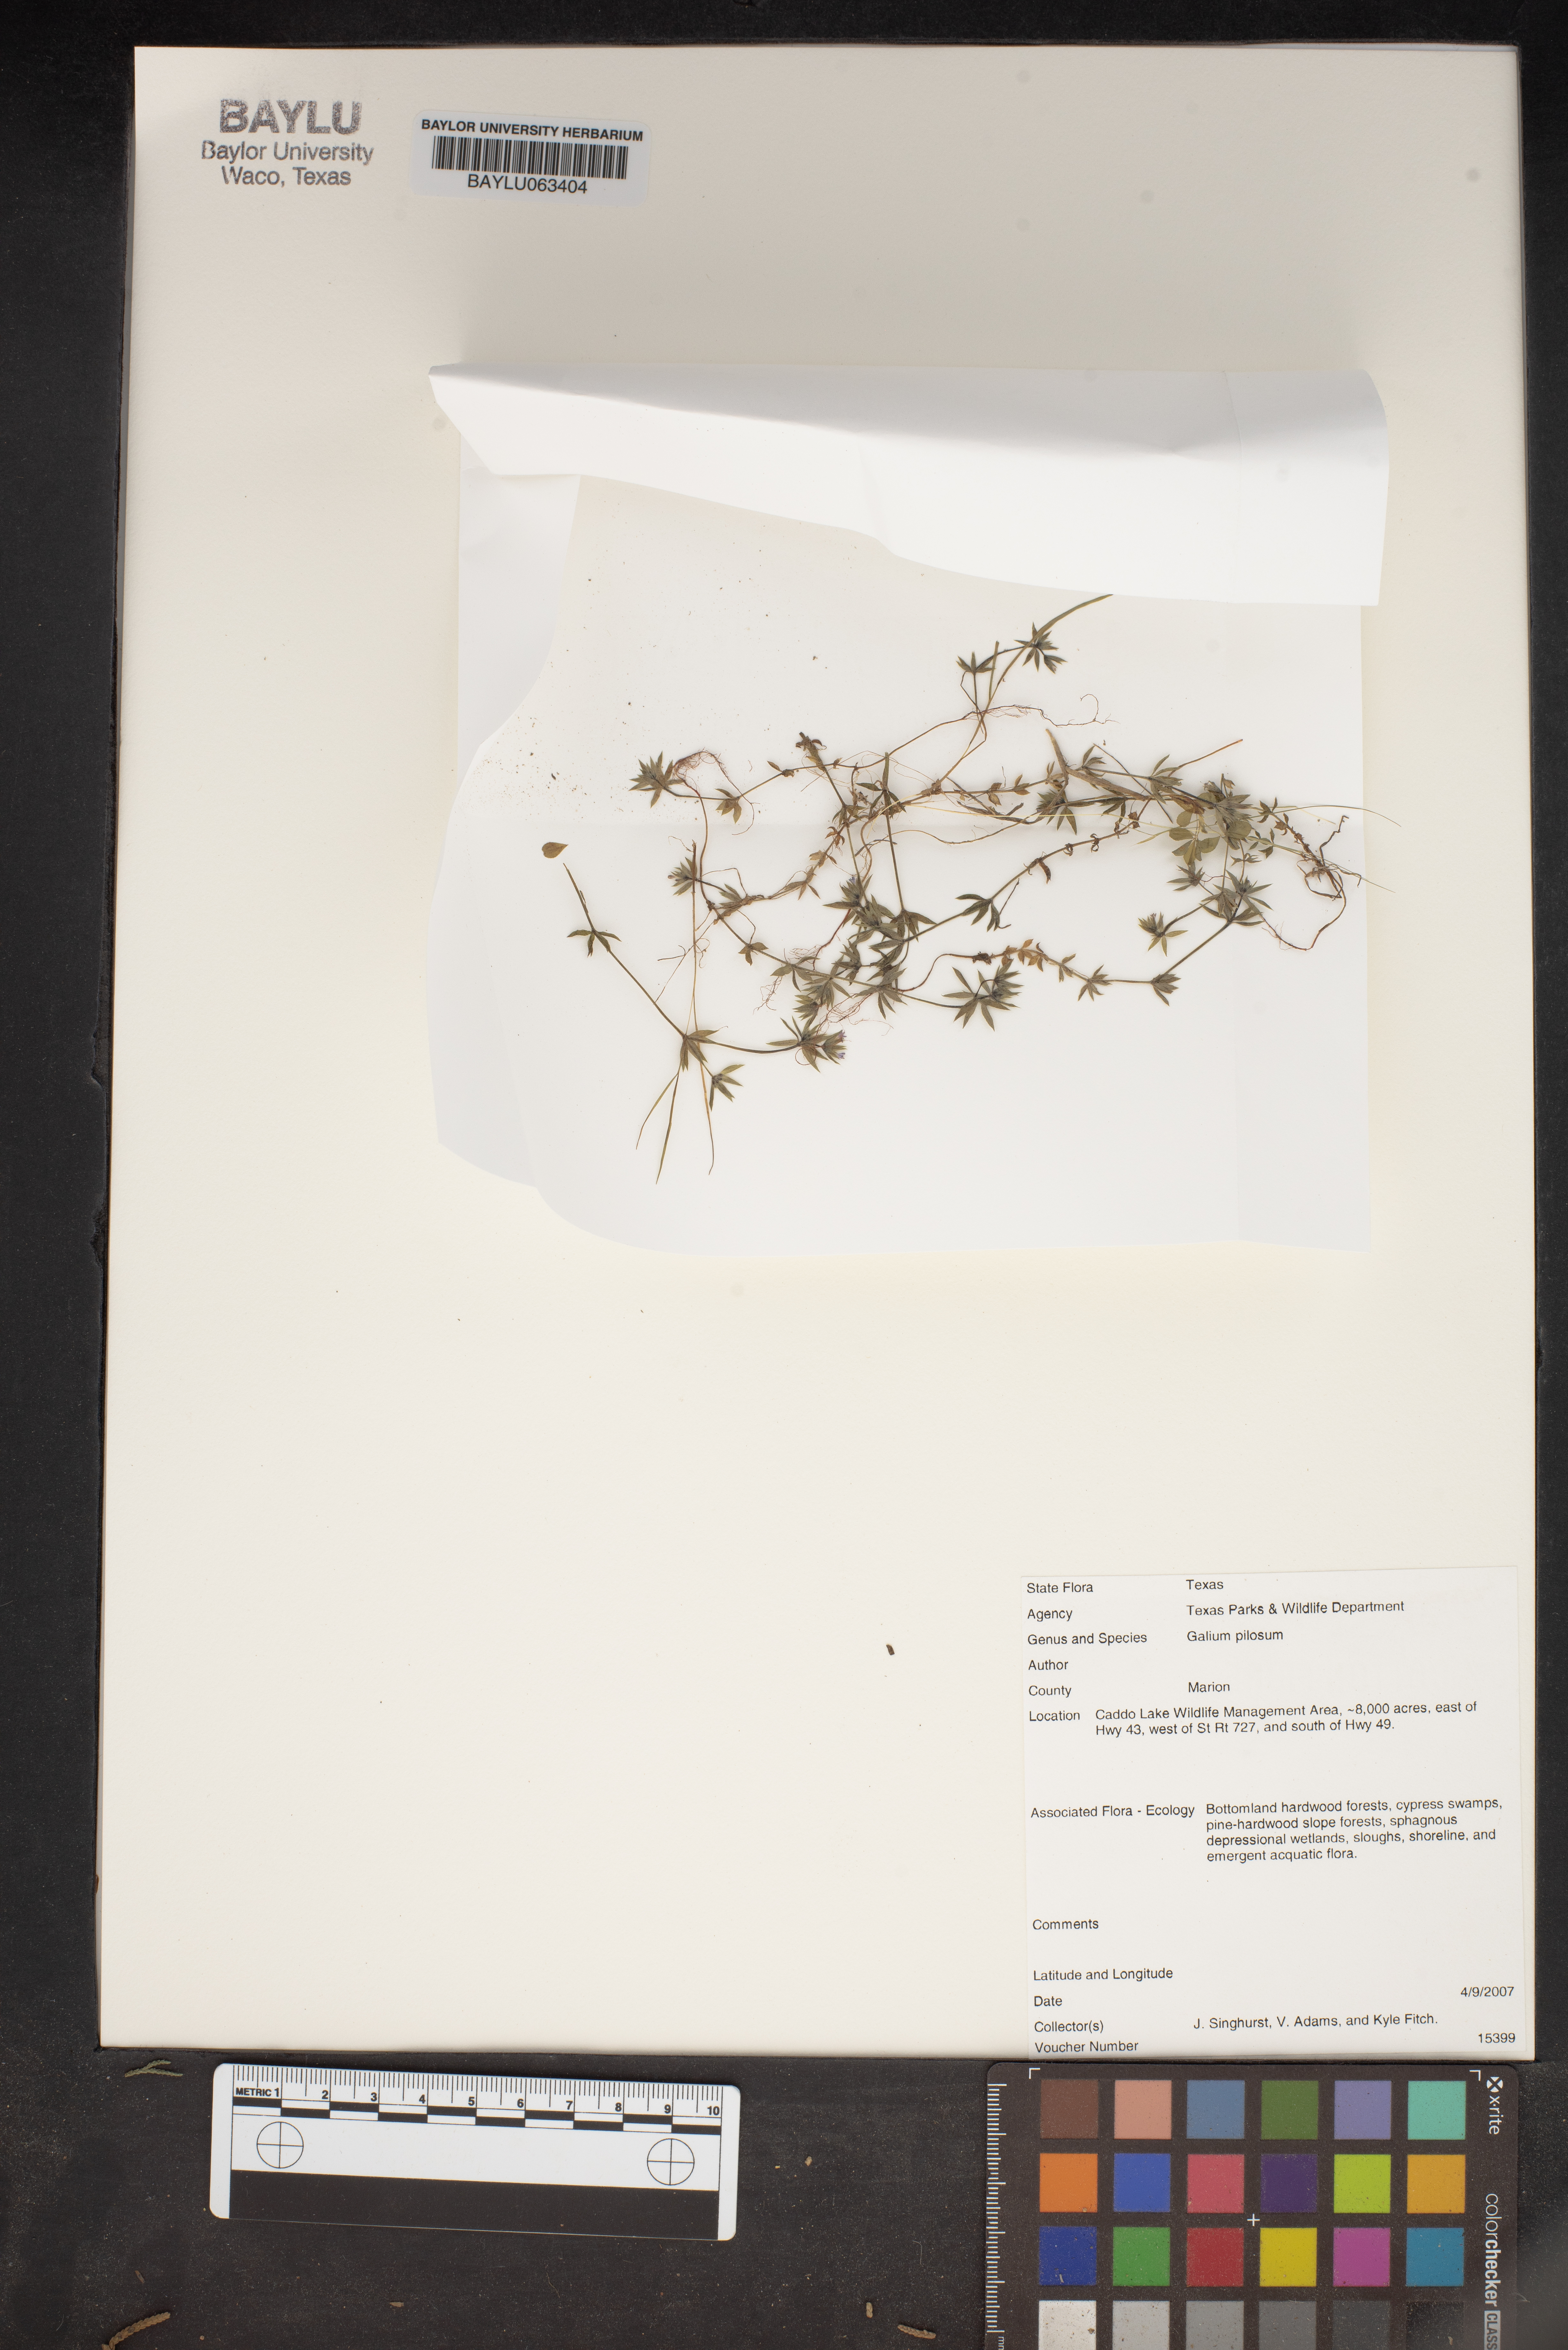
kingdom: Plantae
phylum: Tracheophyta
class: Magnoliopsida
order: Gentianales
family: Rubiaceae
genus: Galium
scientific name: Galium pilosum
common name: Hairy bedstraw
